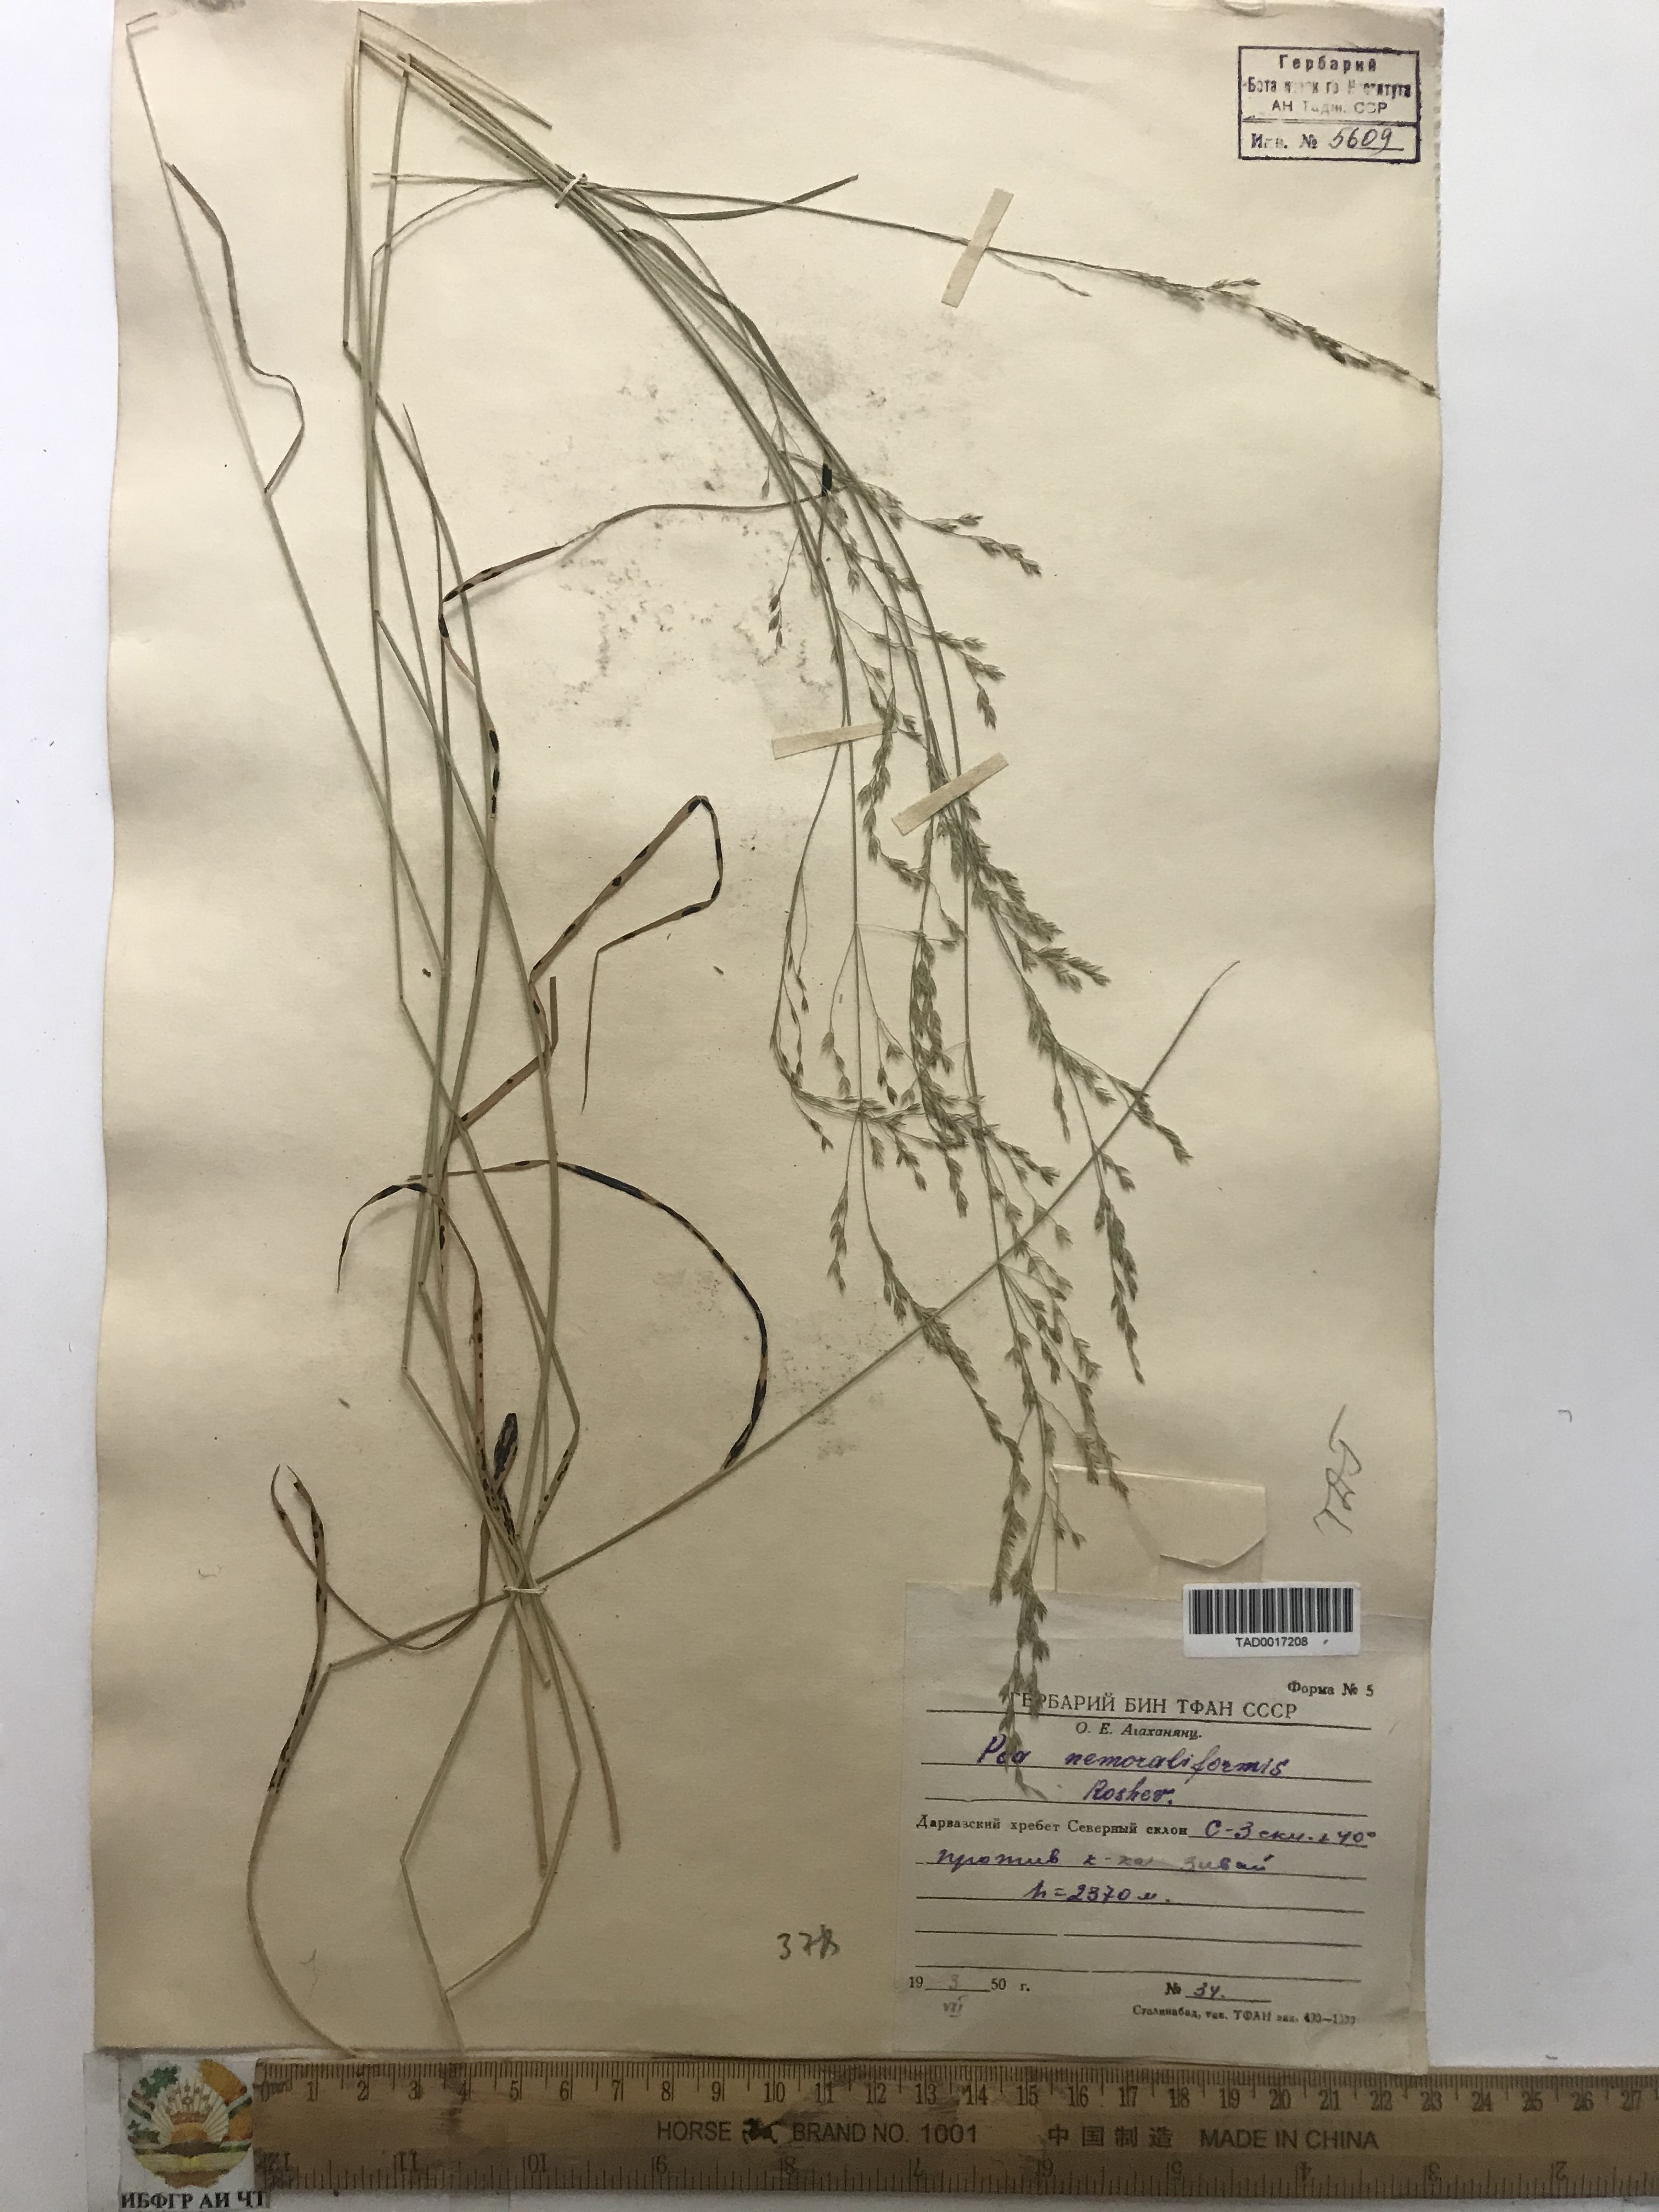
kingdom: Plantae
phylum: Tracheophyta
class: Liliopsida
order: Poales
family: Poaceae
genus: Poa
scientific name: Poa urssulensis
